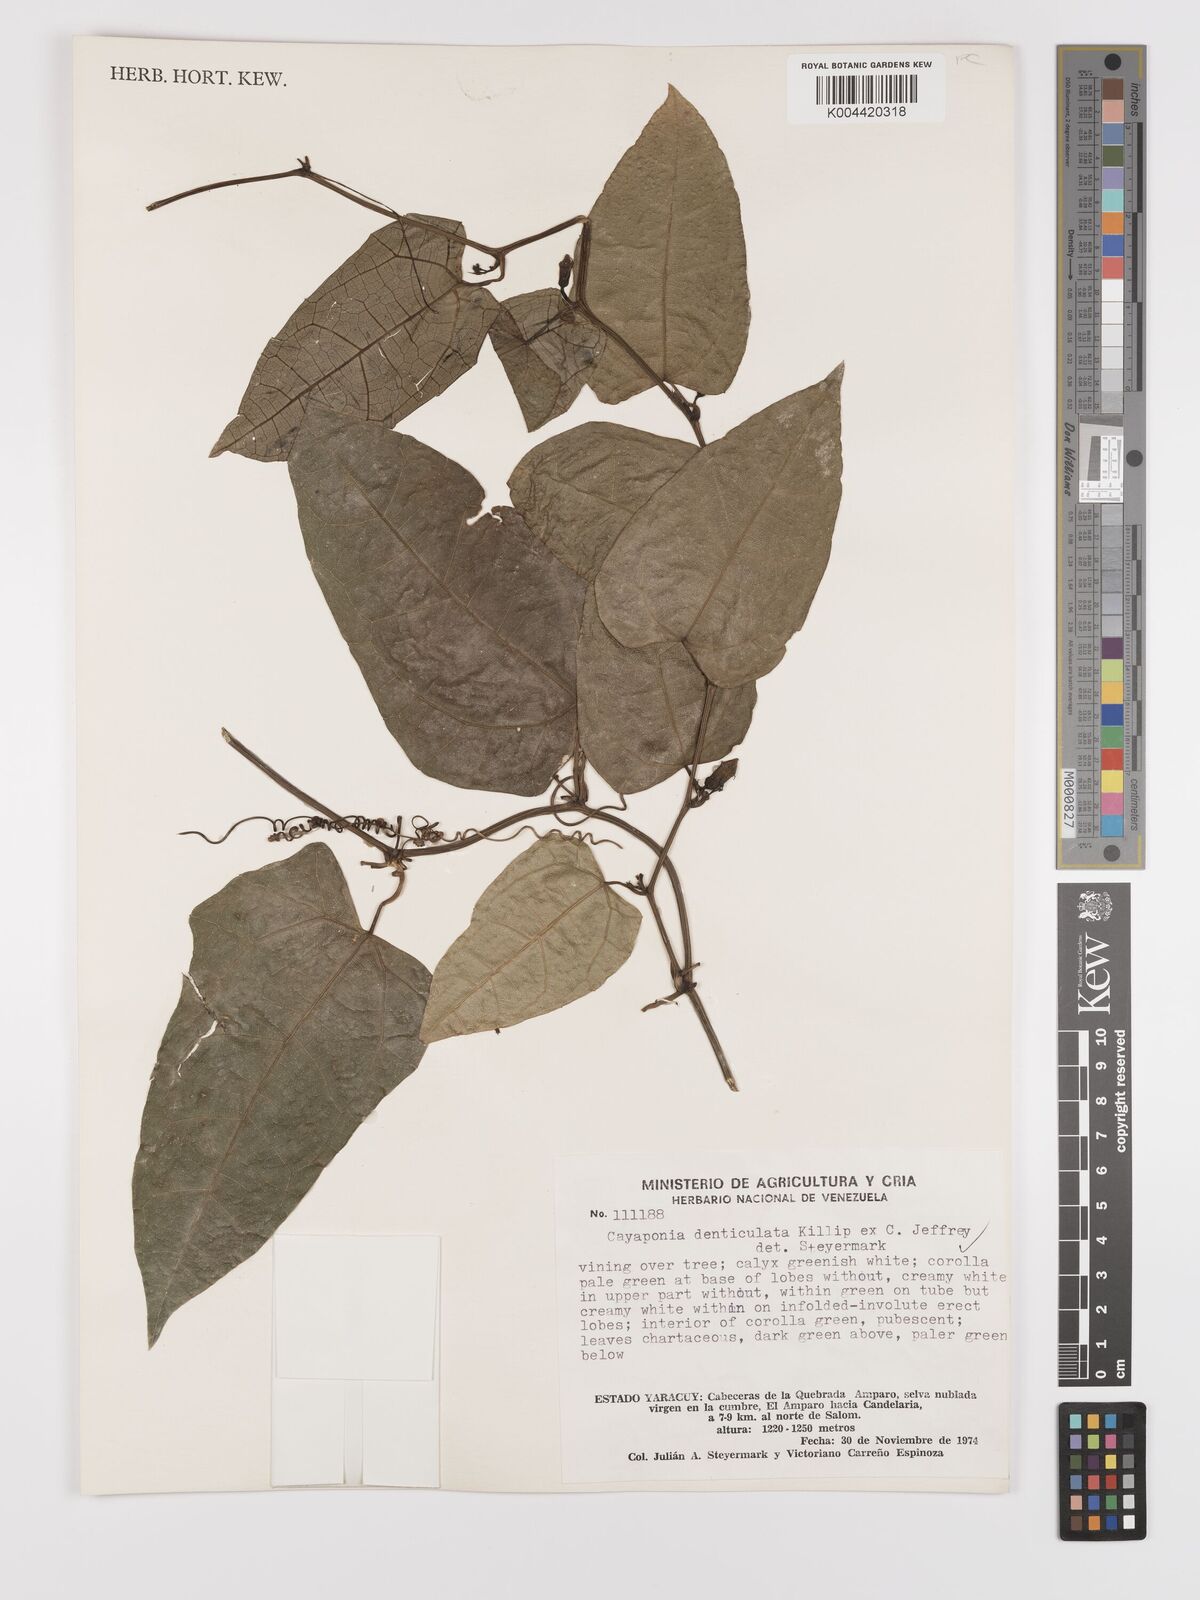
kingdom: Plantae
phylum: Tracheophyta
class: Magnoliopsida
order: Cucurbitales
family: Cucurbitaceae
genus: Cayaponia
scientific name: Cayaponia denticulata
